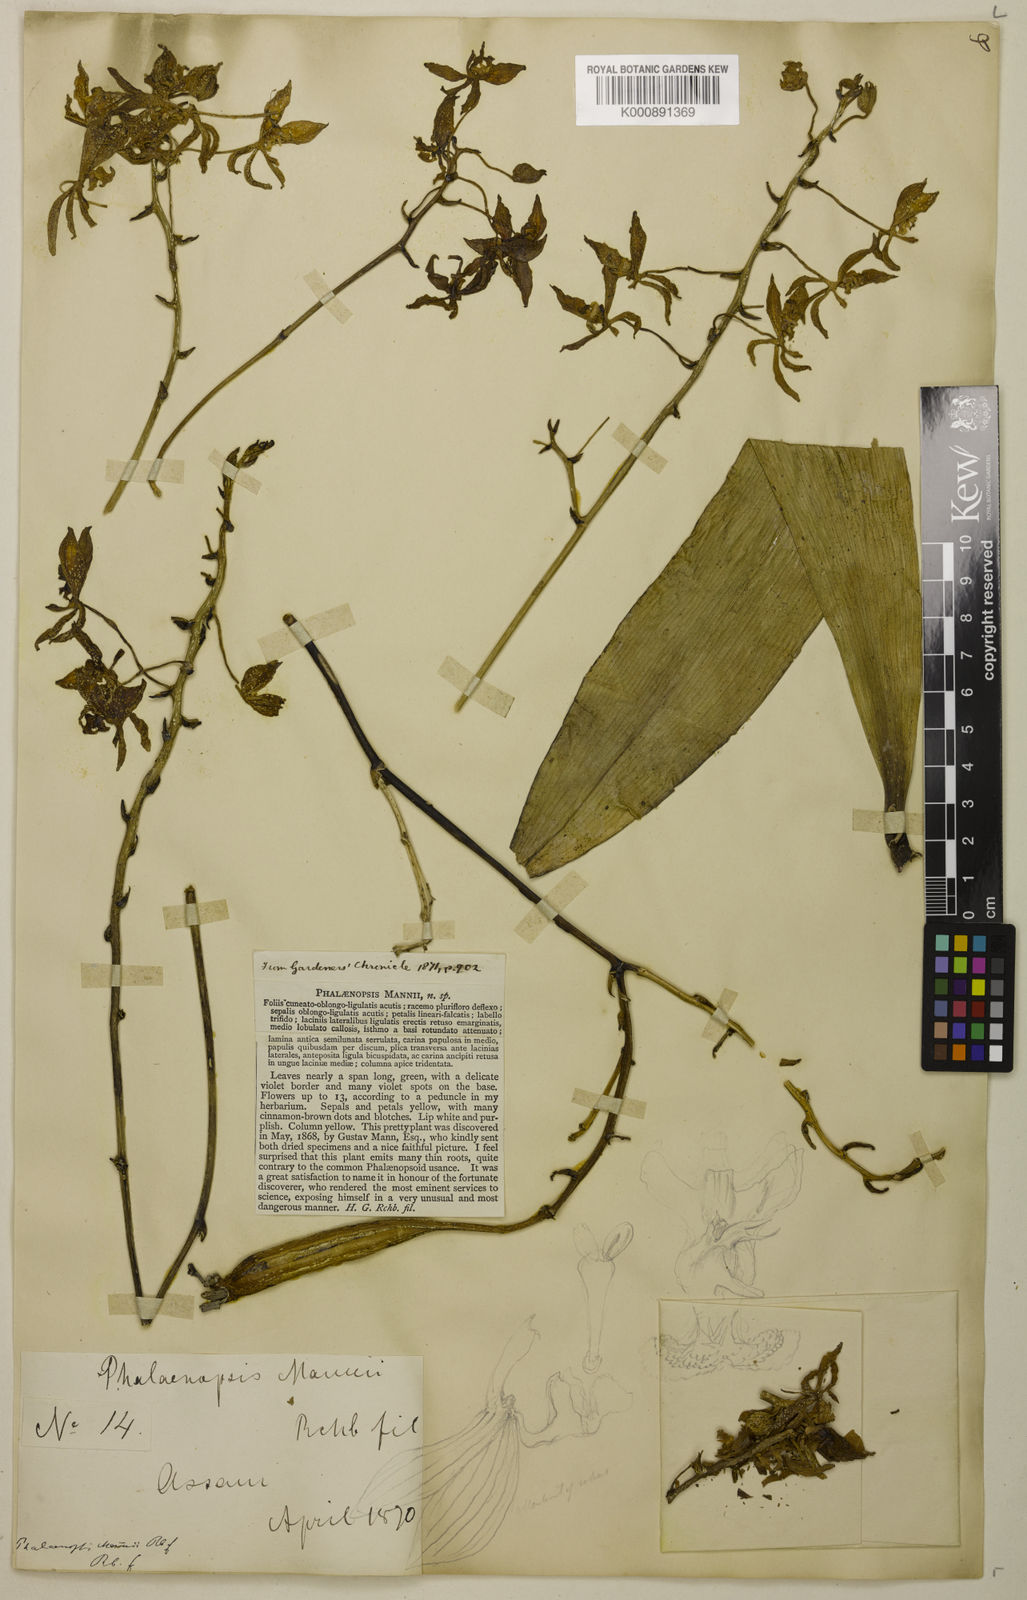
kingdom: Plantae
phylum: Tracheophyta
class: Liliopsida
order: Asparagales
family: Orchidaceae
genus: Phalaenopsis
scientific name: Phalaenopsis mannii
